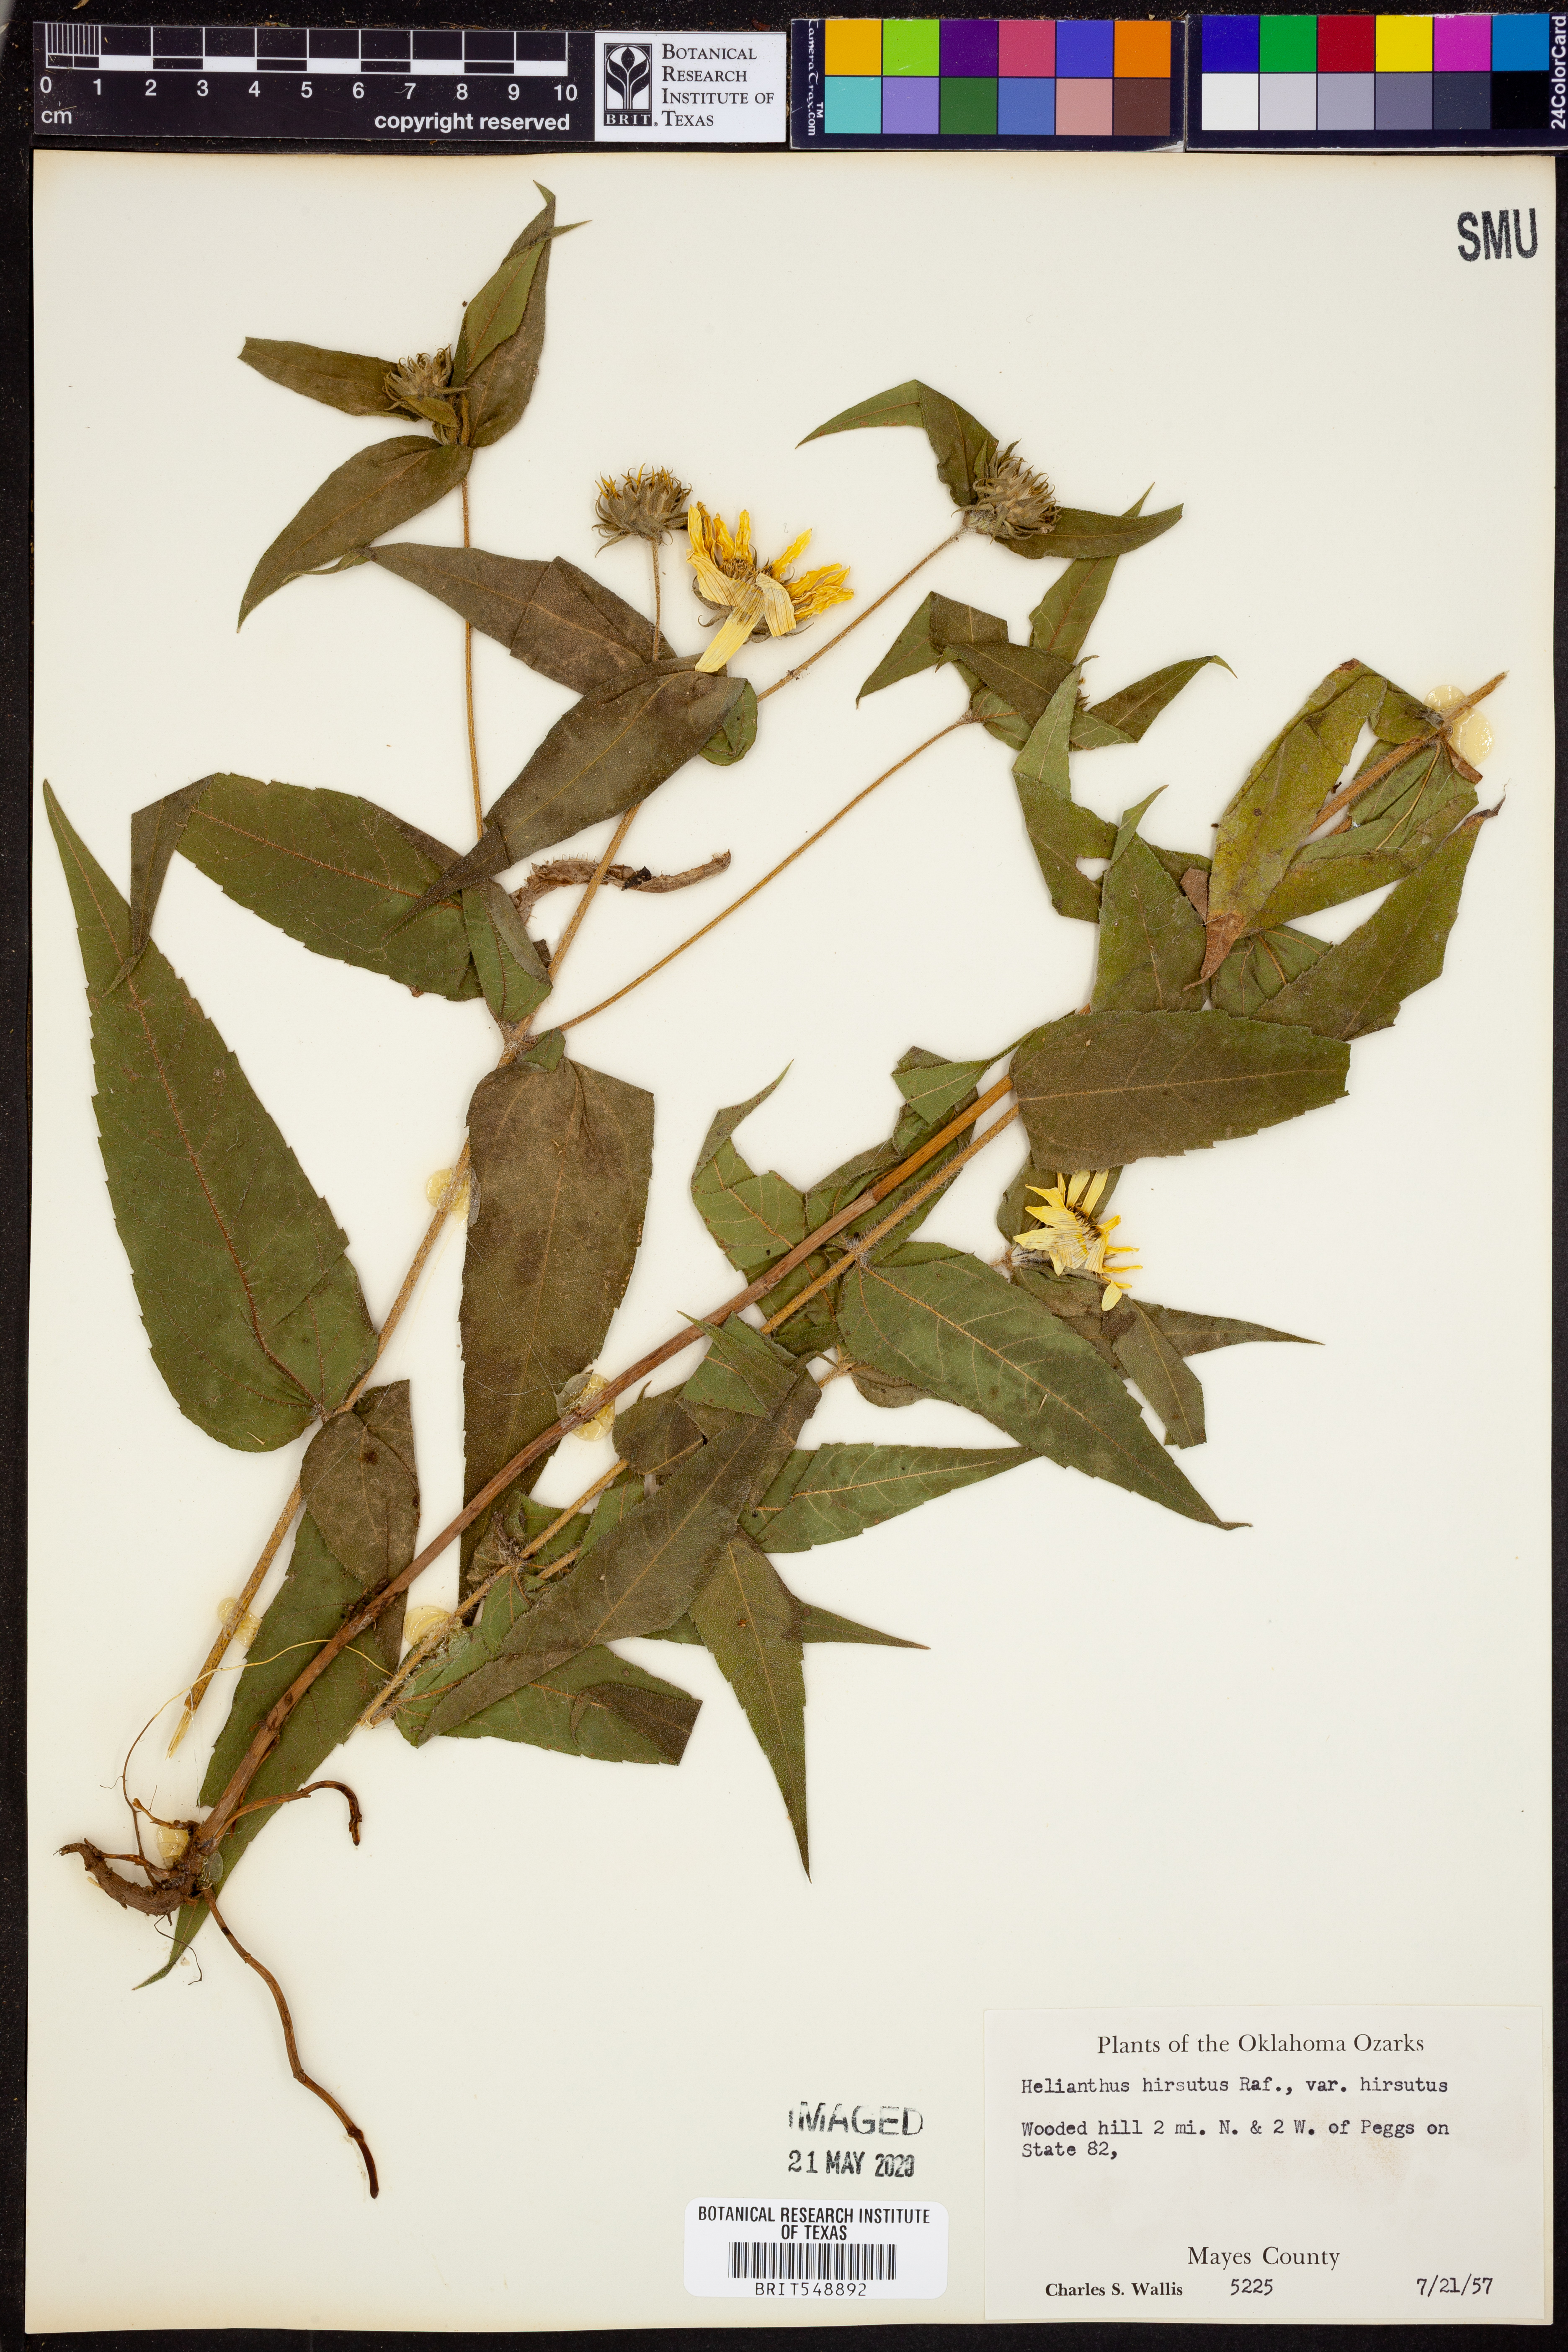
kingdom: Plantae
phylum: Tracheophyta
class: Magnoliopsida
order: Asterales
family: Asteraceae
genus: Helianthus
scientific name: Helianthus hirsutus
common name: Hairy sunflower
